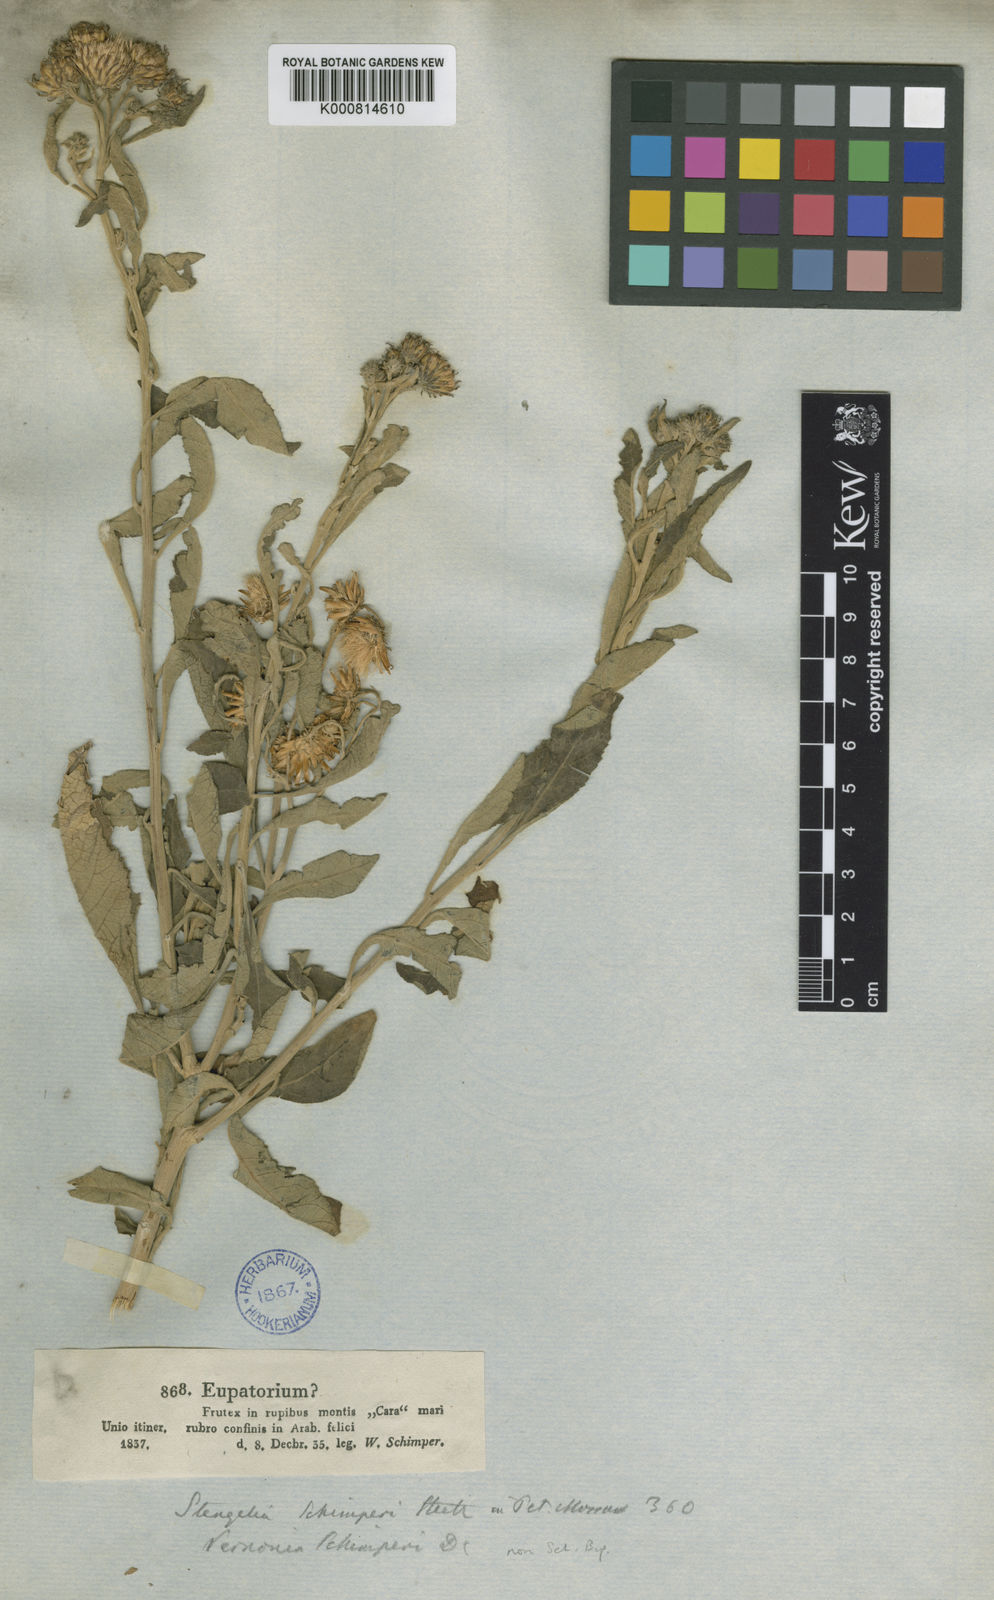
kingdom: Plantae
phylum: Tracheophyta
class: Magnoliopsida
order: Asterales
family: Asteraceae
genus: Vernonia
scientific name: Vernonia
